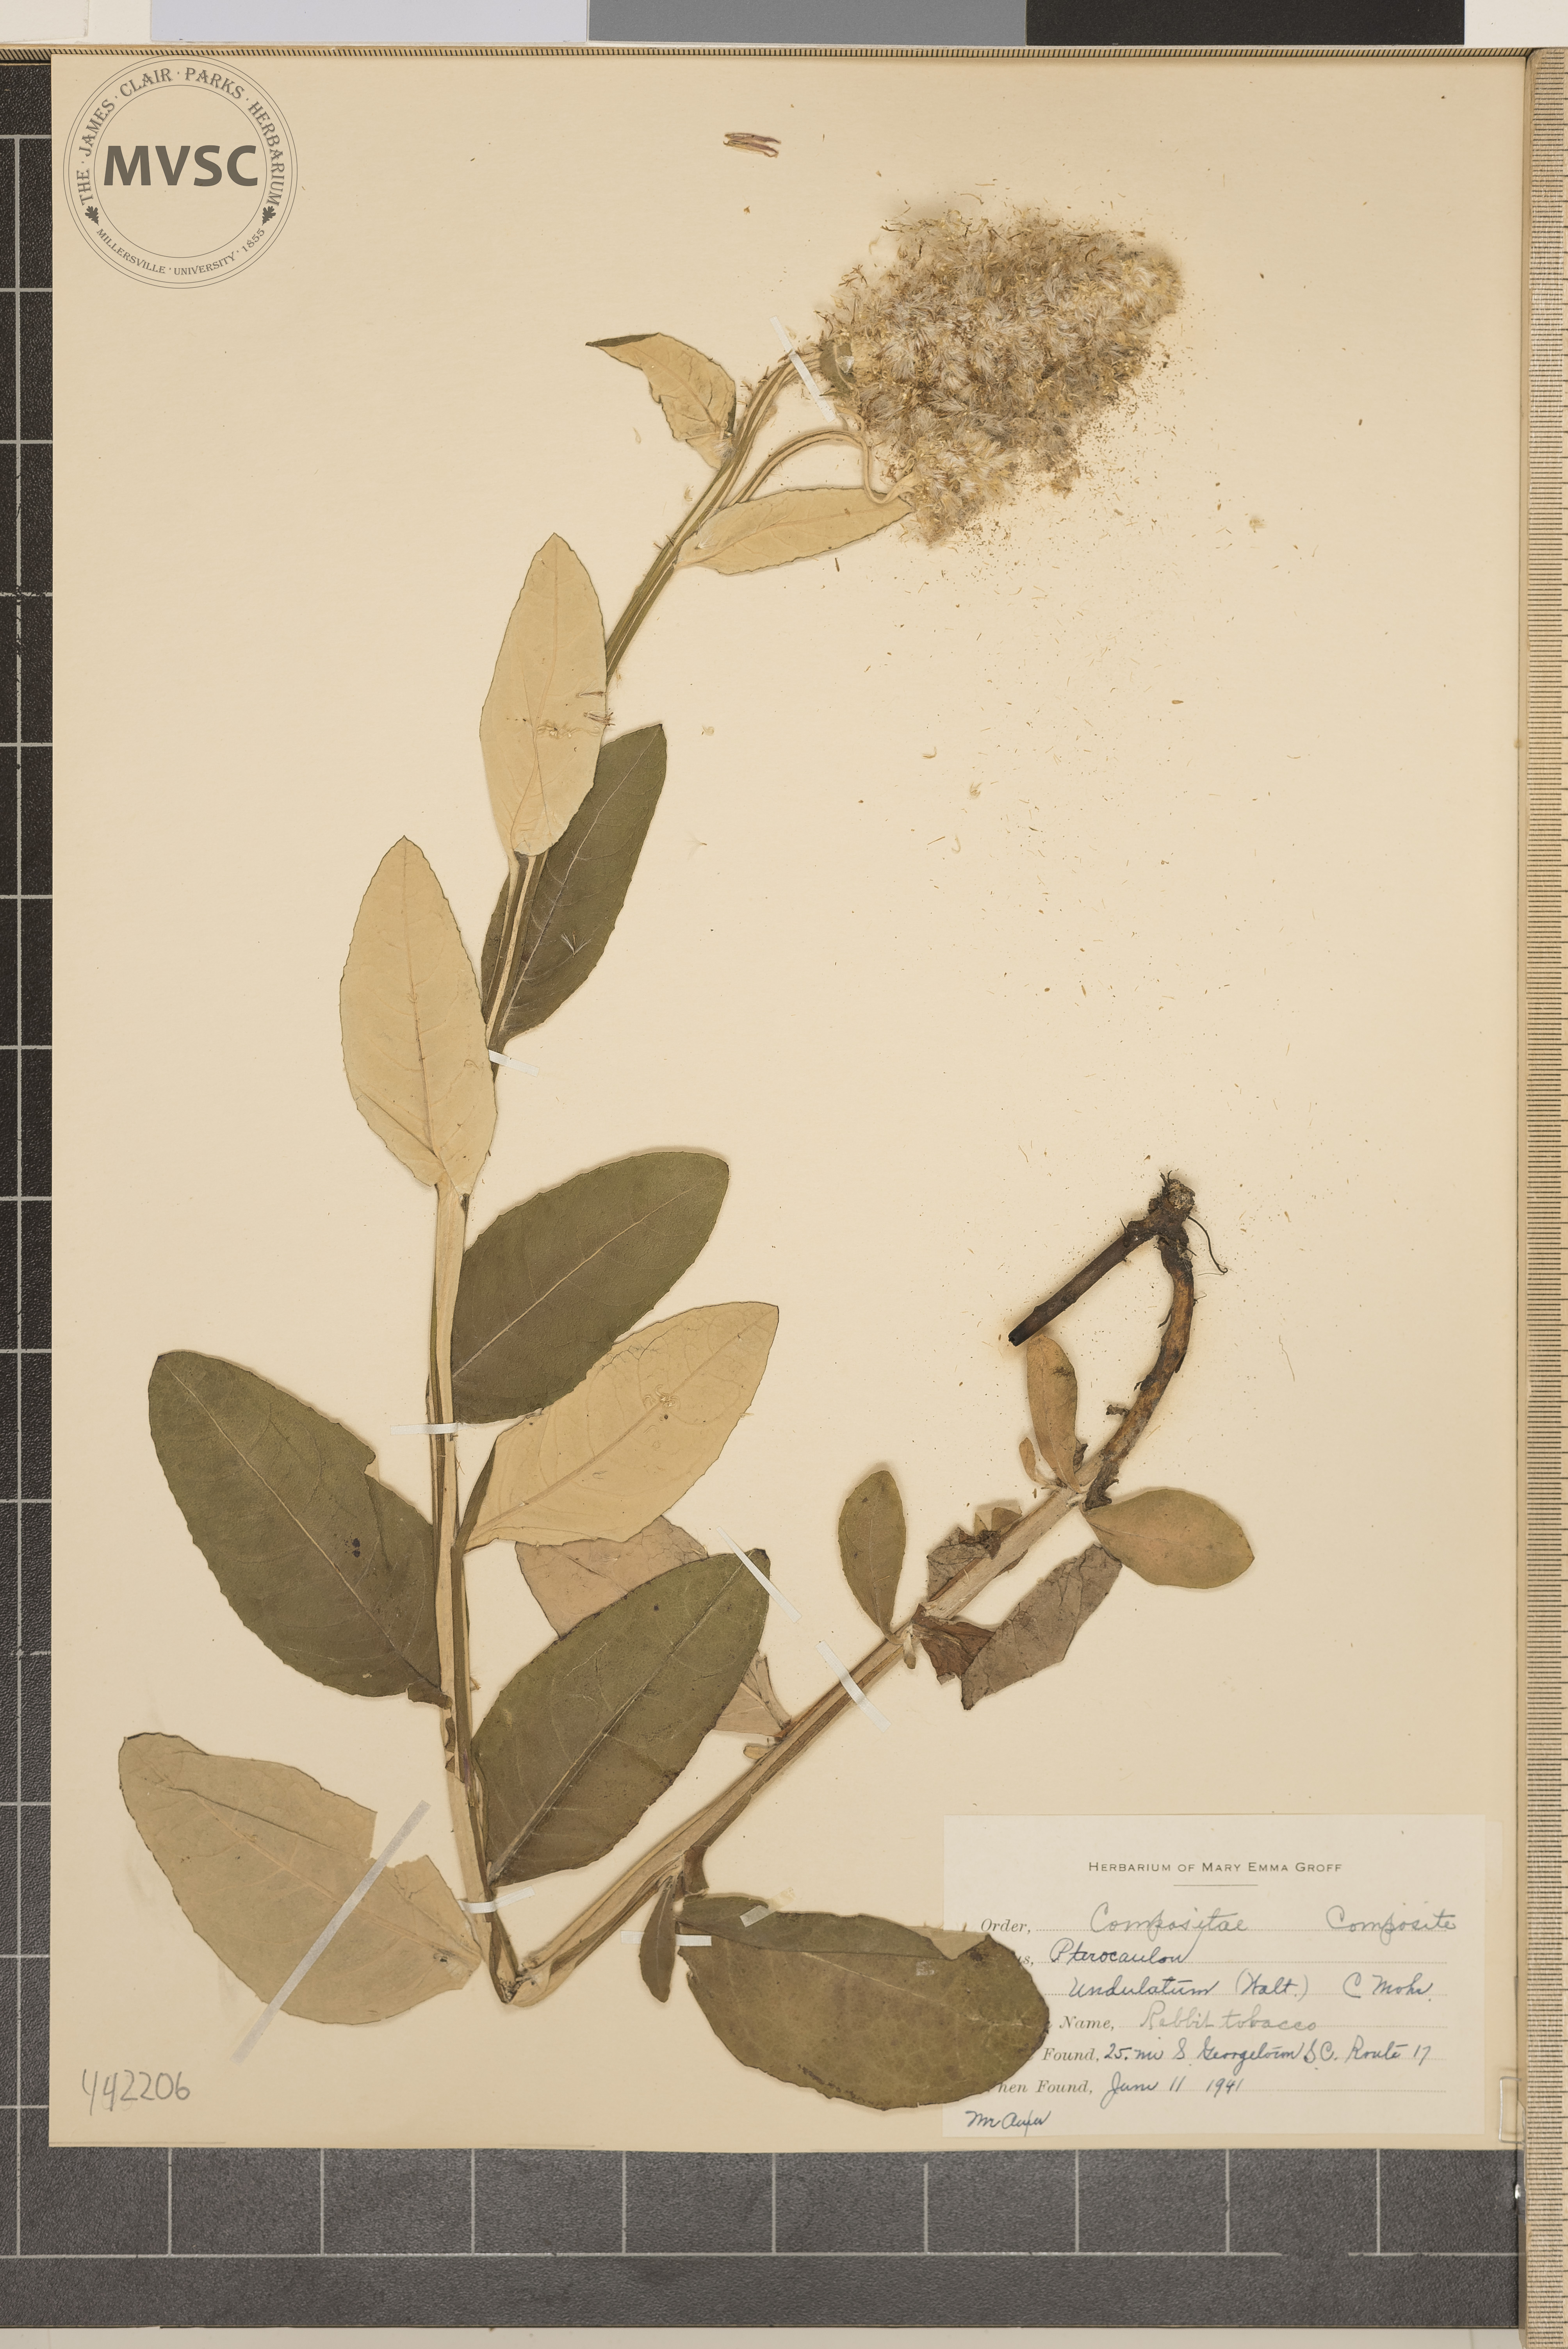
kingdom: Plantae
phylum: Tracheophyta
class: Magnoliopsida
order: Asterales
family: Asteraceae
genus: Pterocaulon
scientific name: Pterocaulon pycnostachyum
